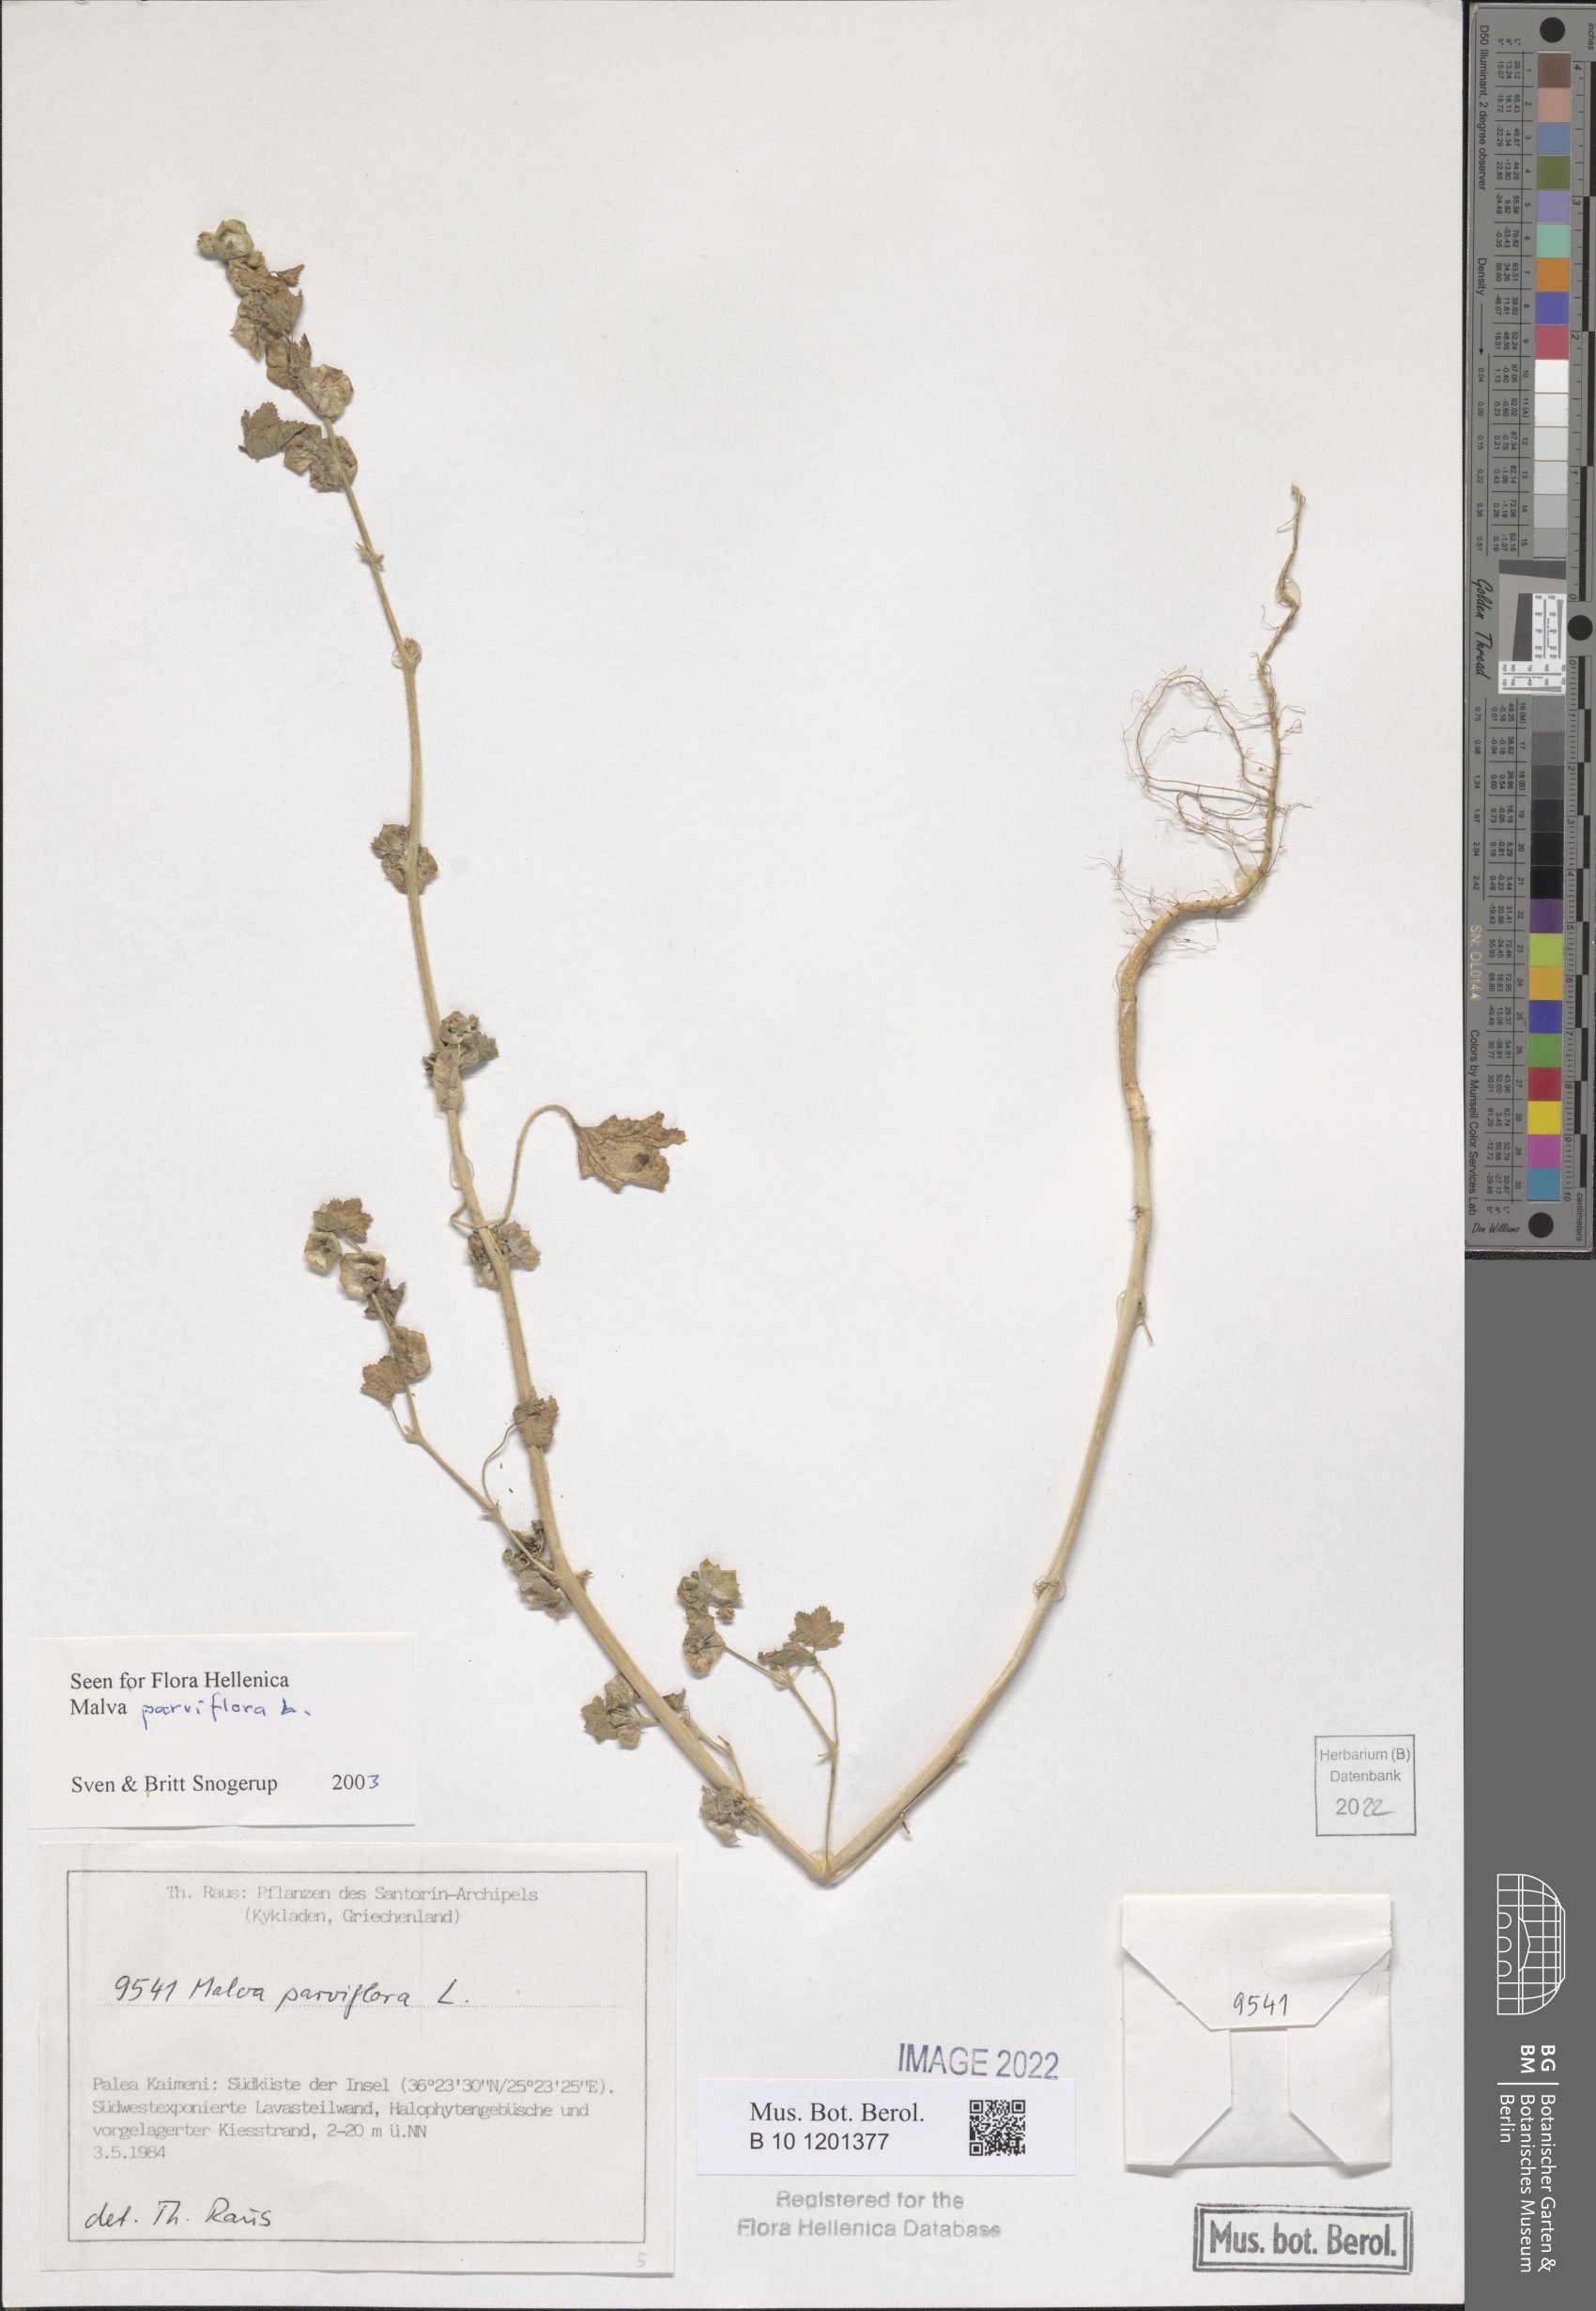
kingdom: Plantae
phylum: Tracheophyta
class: Magnoliopsida
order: Malvales
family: Malvaceae
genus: Malva
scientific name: Malva parviflora
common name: Least mallow
